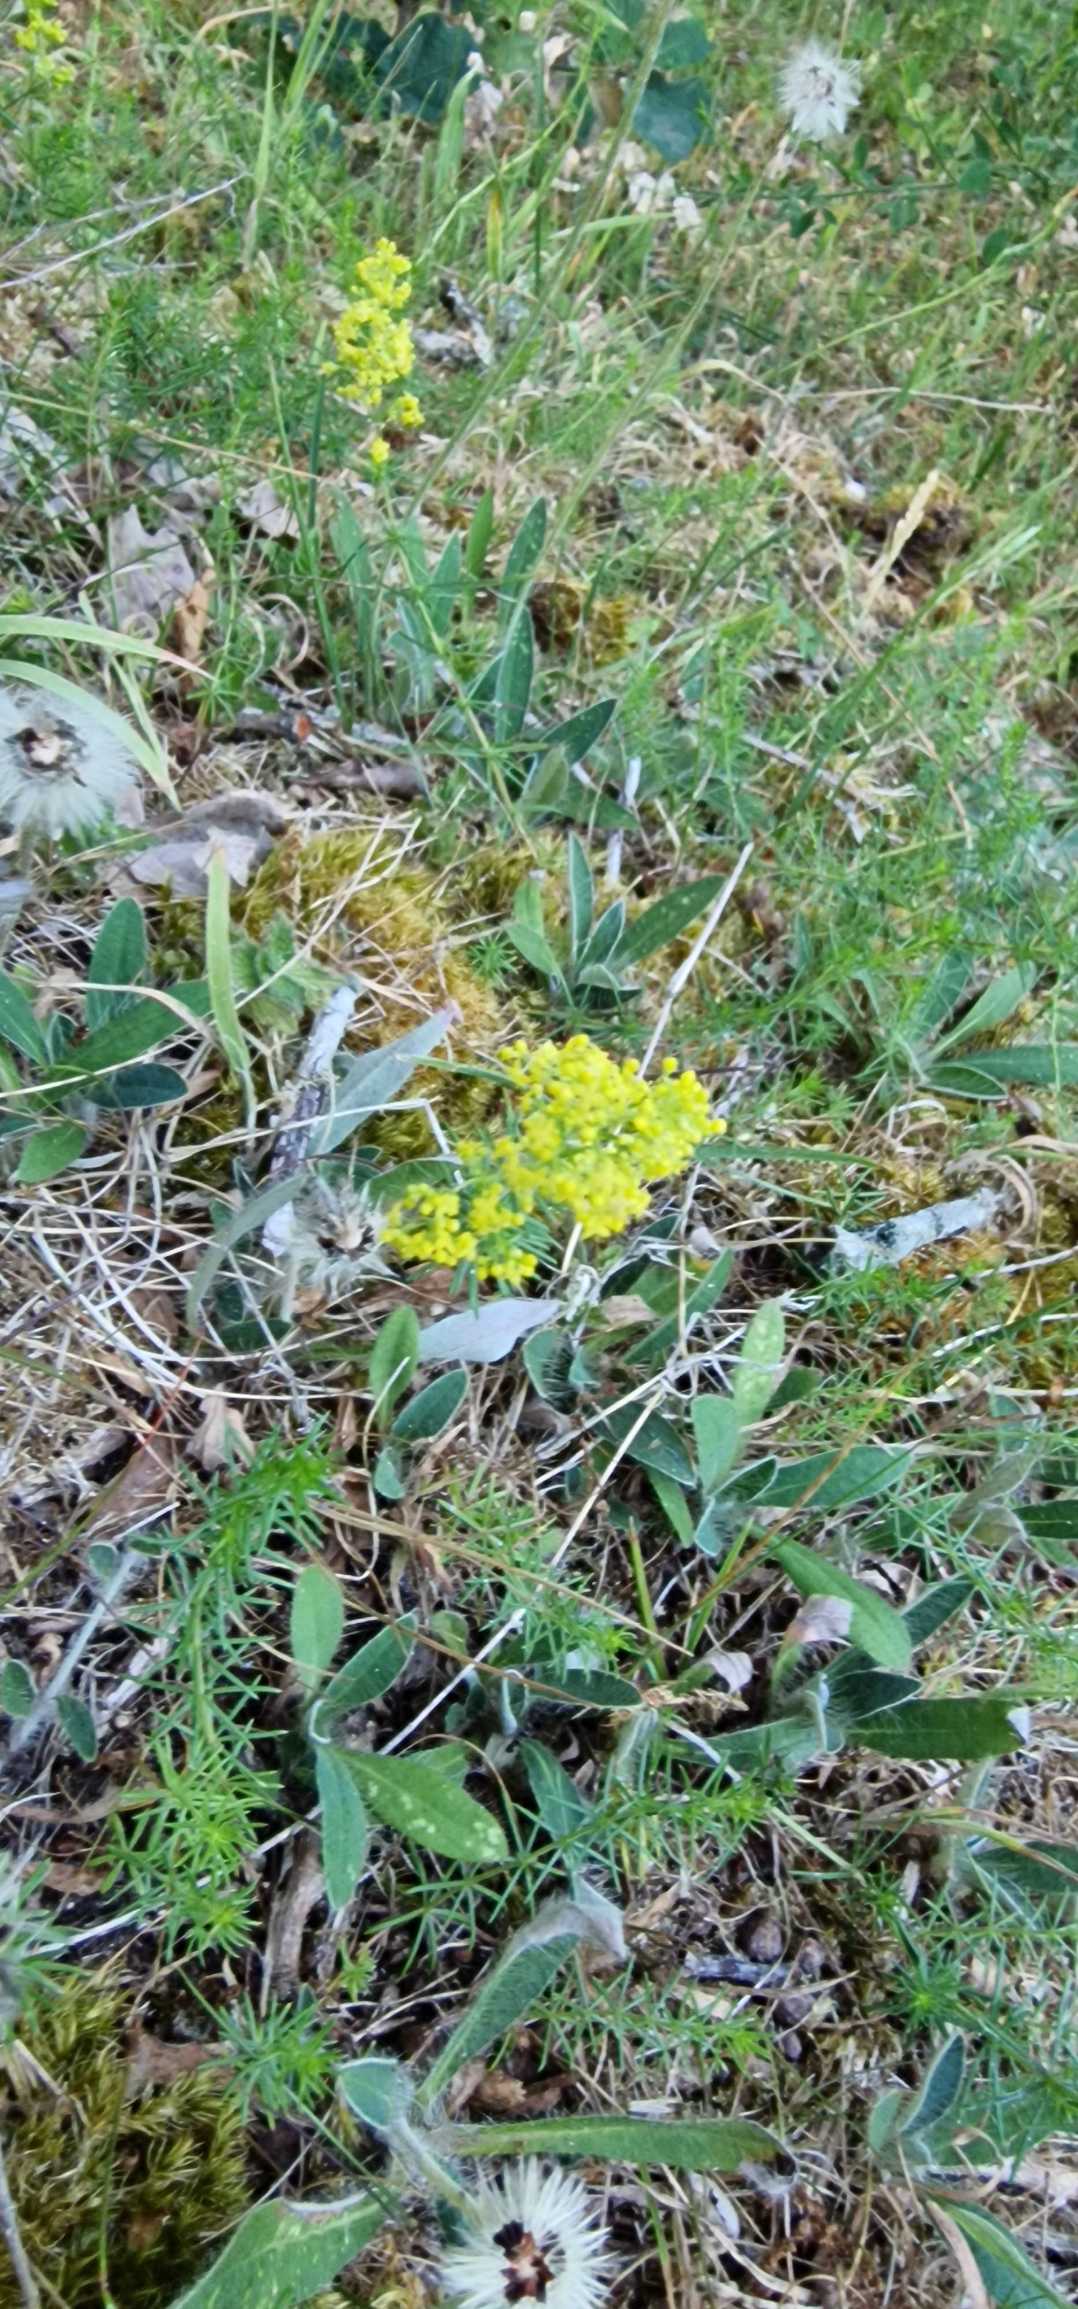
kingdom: Plantae
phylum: Tracheophyta
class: Magnoliopsida
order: Gentianales
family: Rubiaceae
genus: Galium
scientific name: Galium verum
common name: Gul snerre
